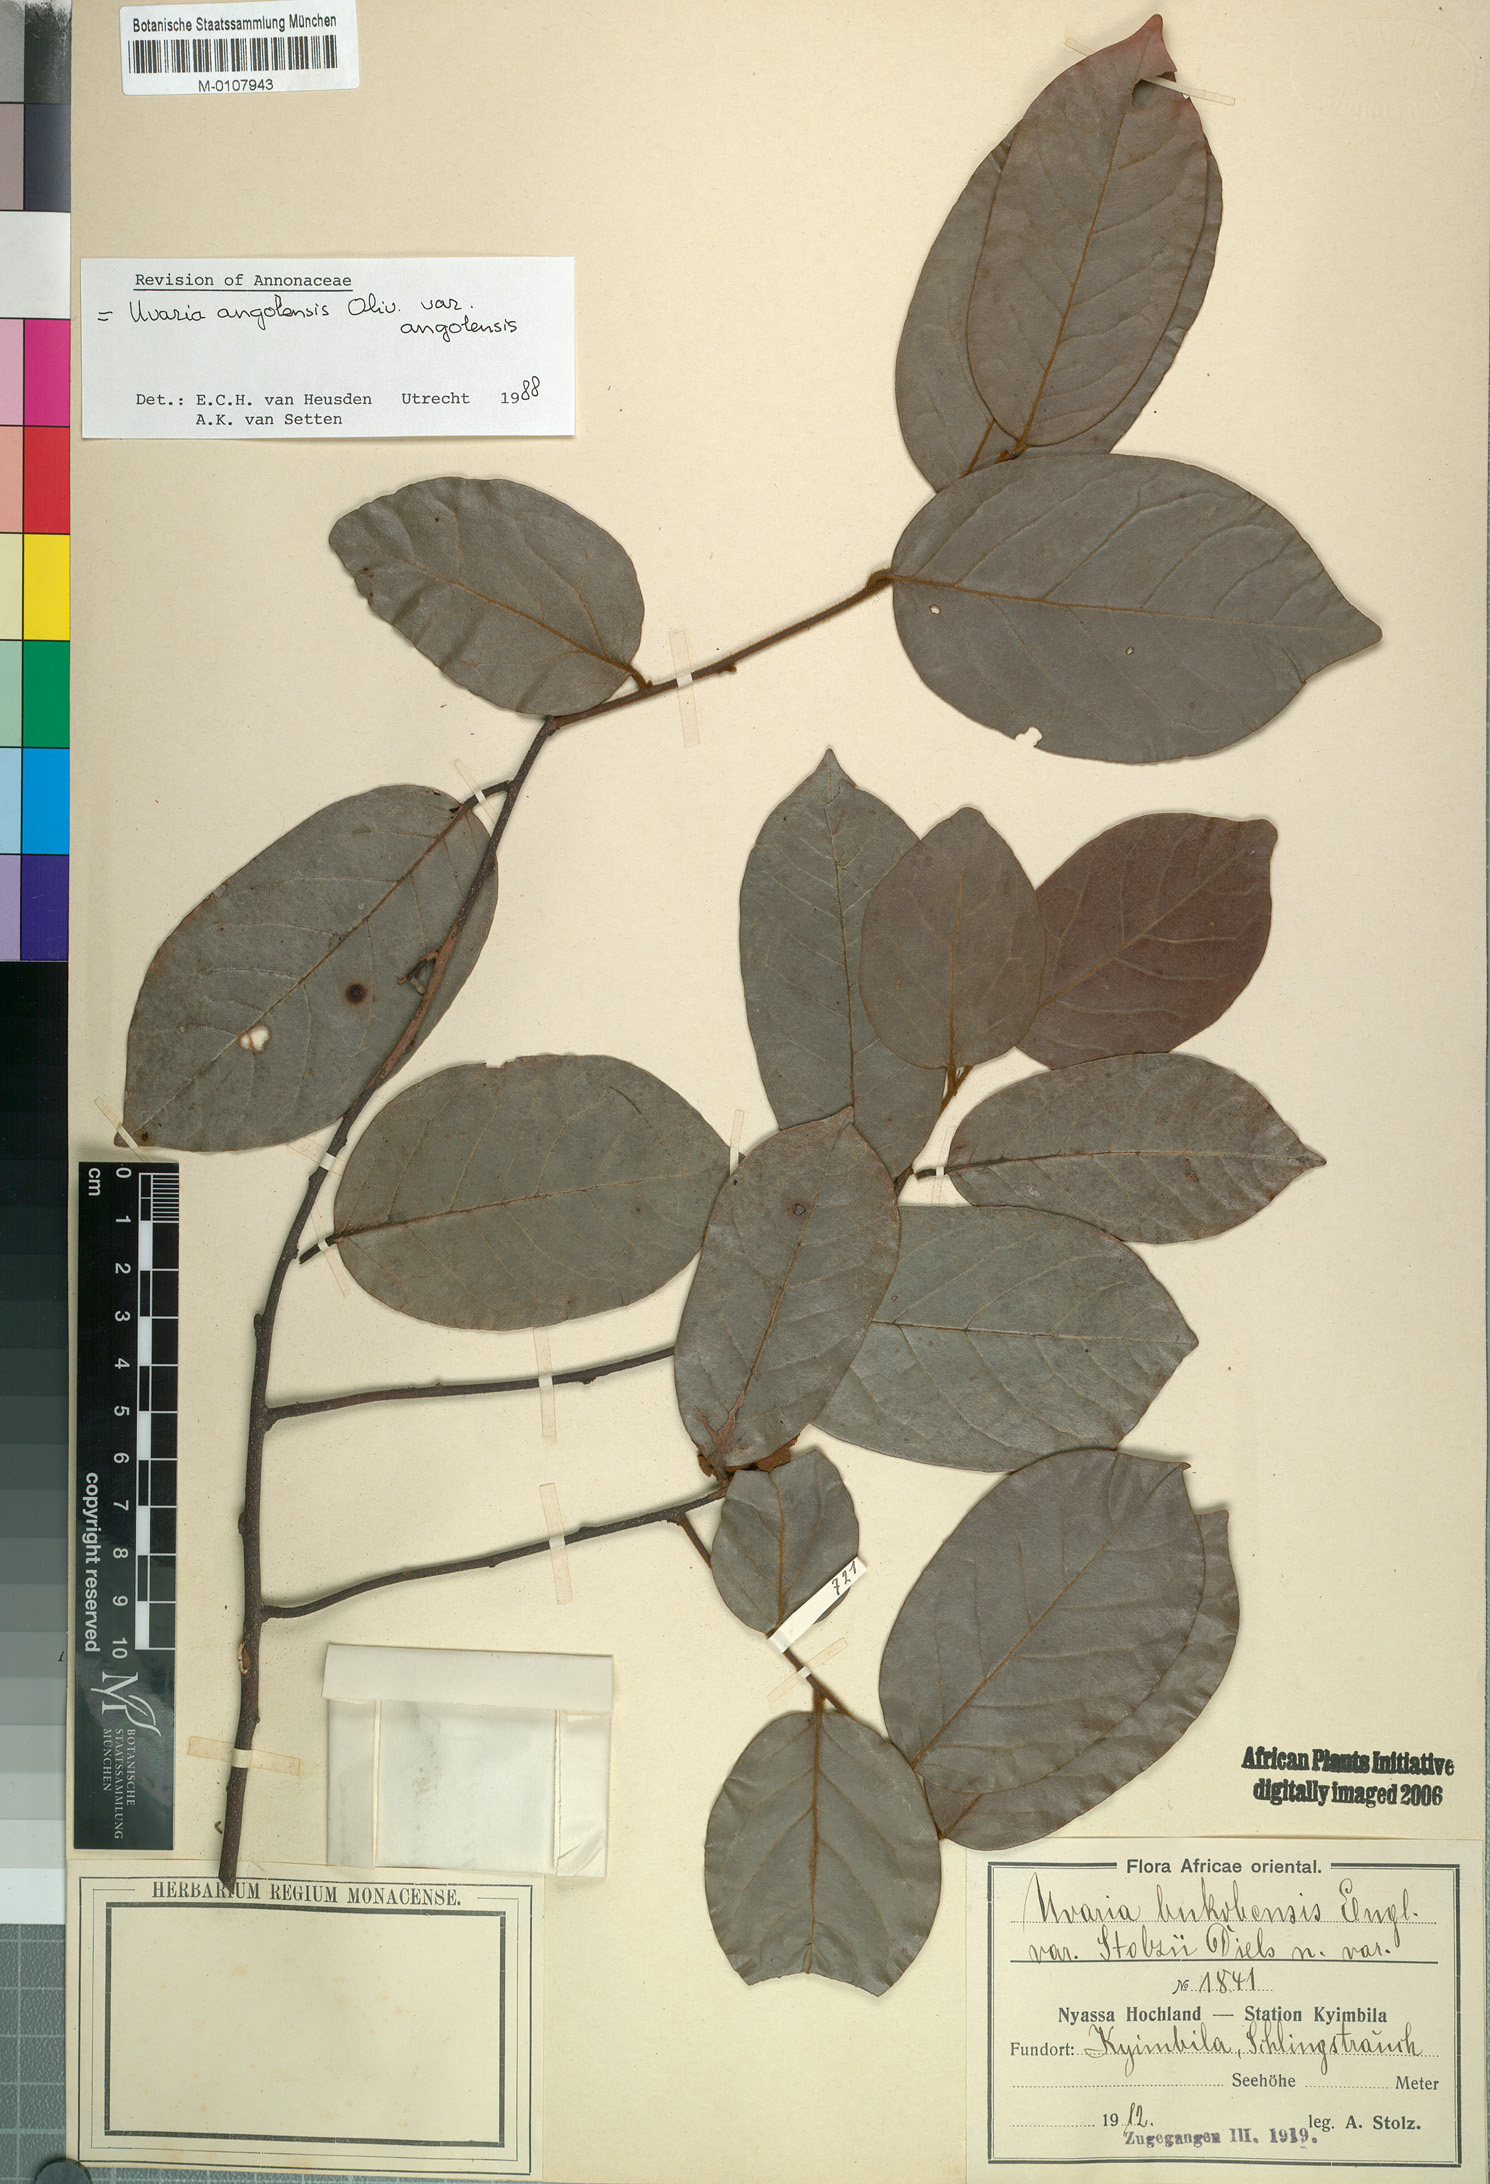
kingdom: Plantae
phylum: Tracheophyta
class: Magnoliopsida
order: Magnoliales
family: Annonaceae
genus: Uvaria
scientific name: Uvaria angolensis
